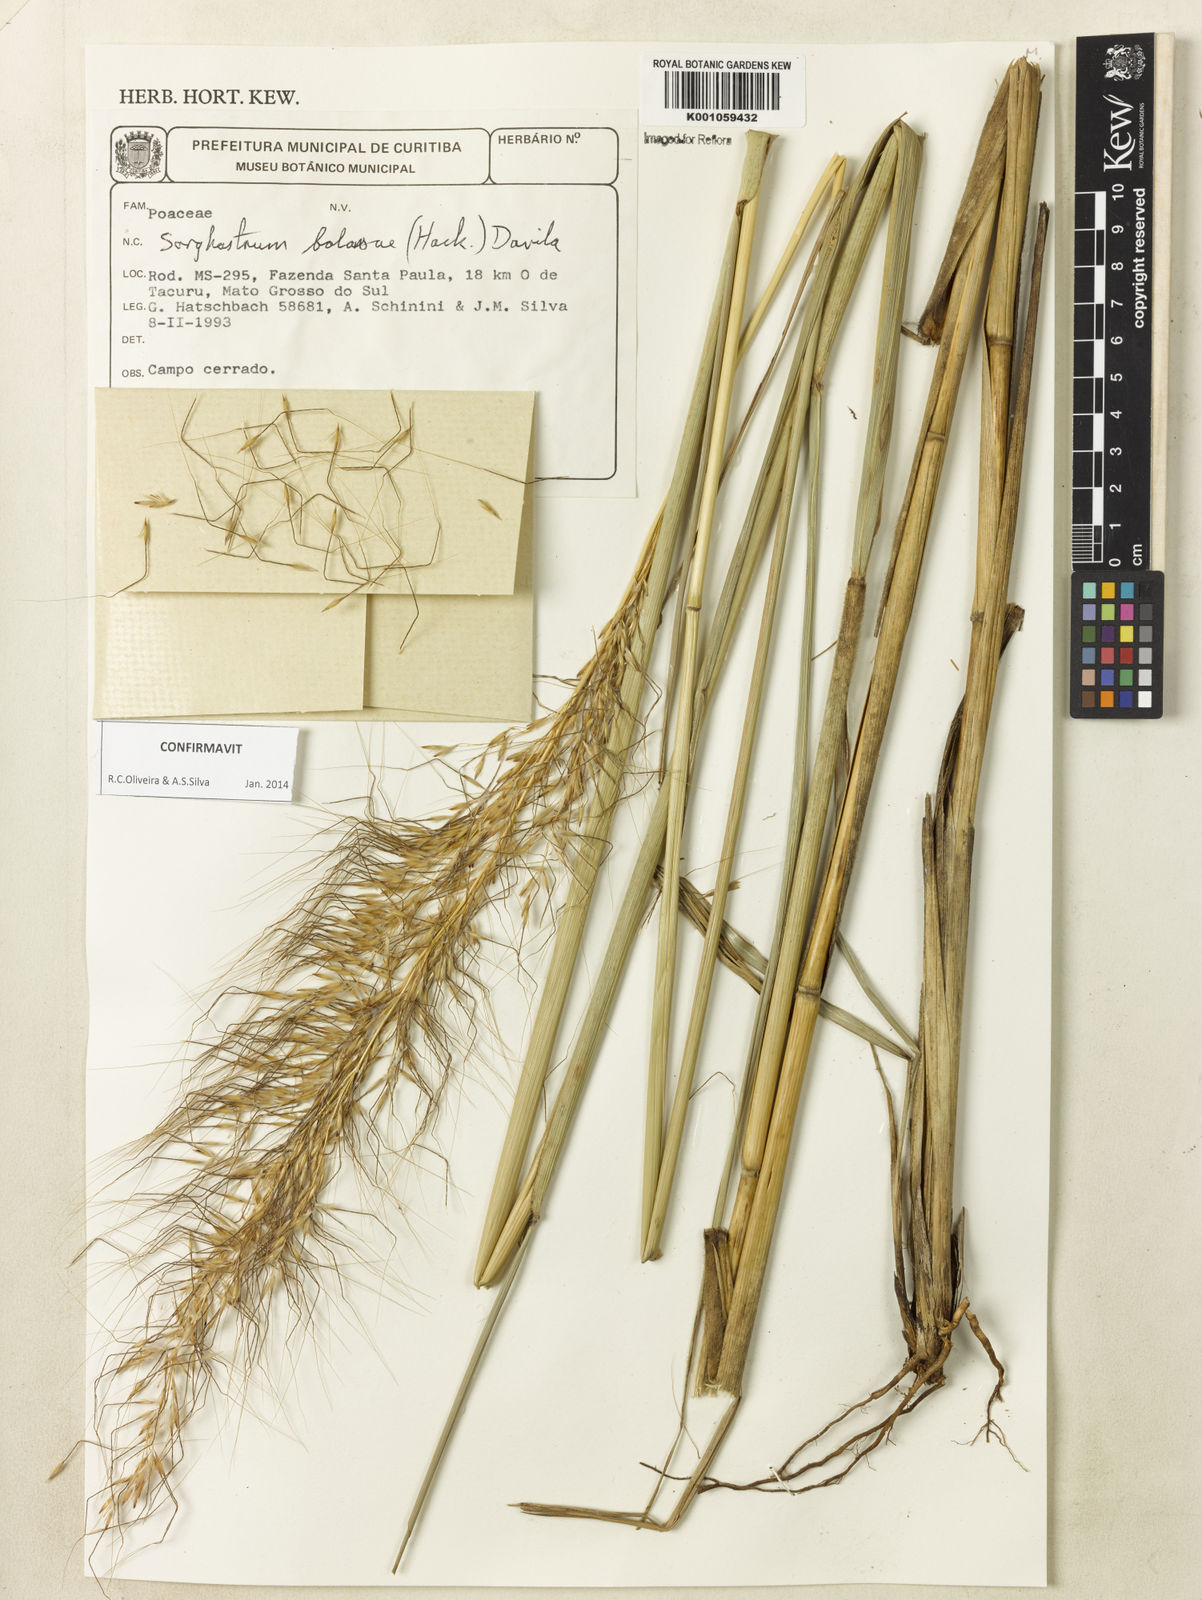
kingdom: Plantae
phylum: Tracheophyta
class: Liliopsida
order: Poales
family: Poaceae
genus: Sorghastrum
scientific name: Sorghastrum
